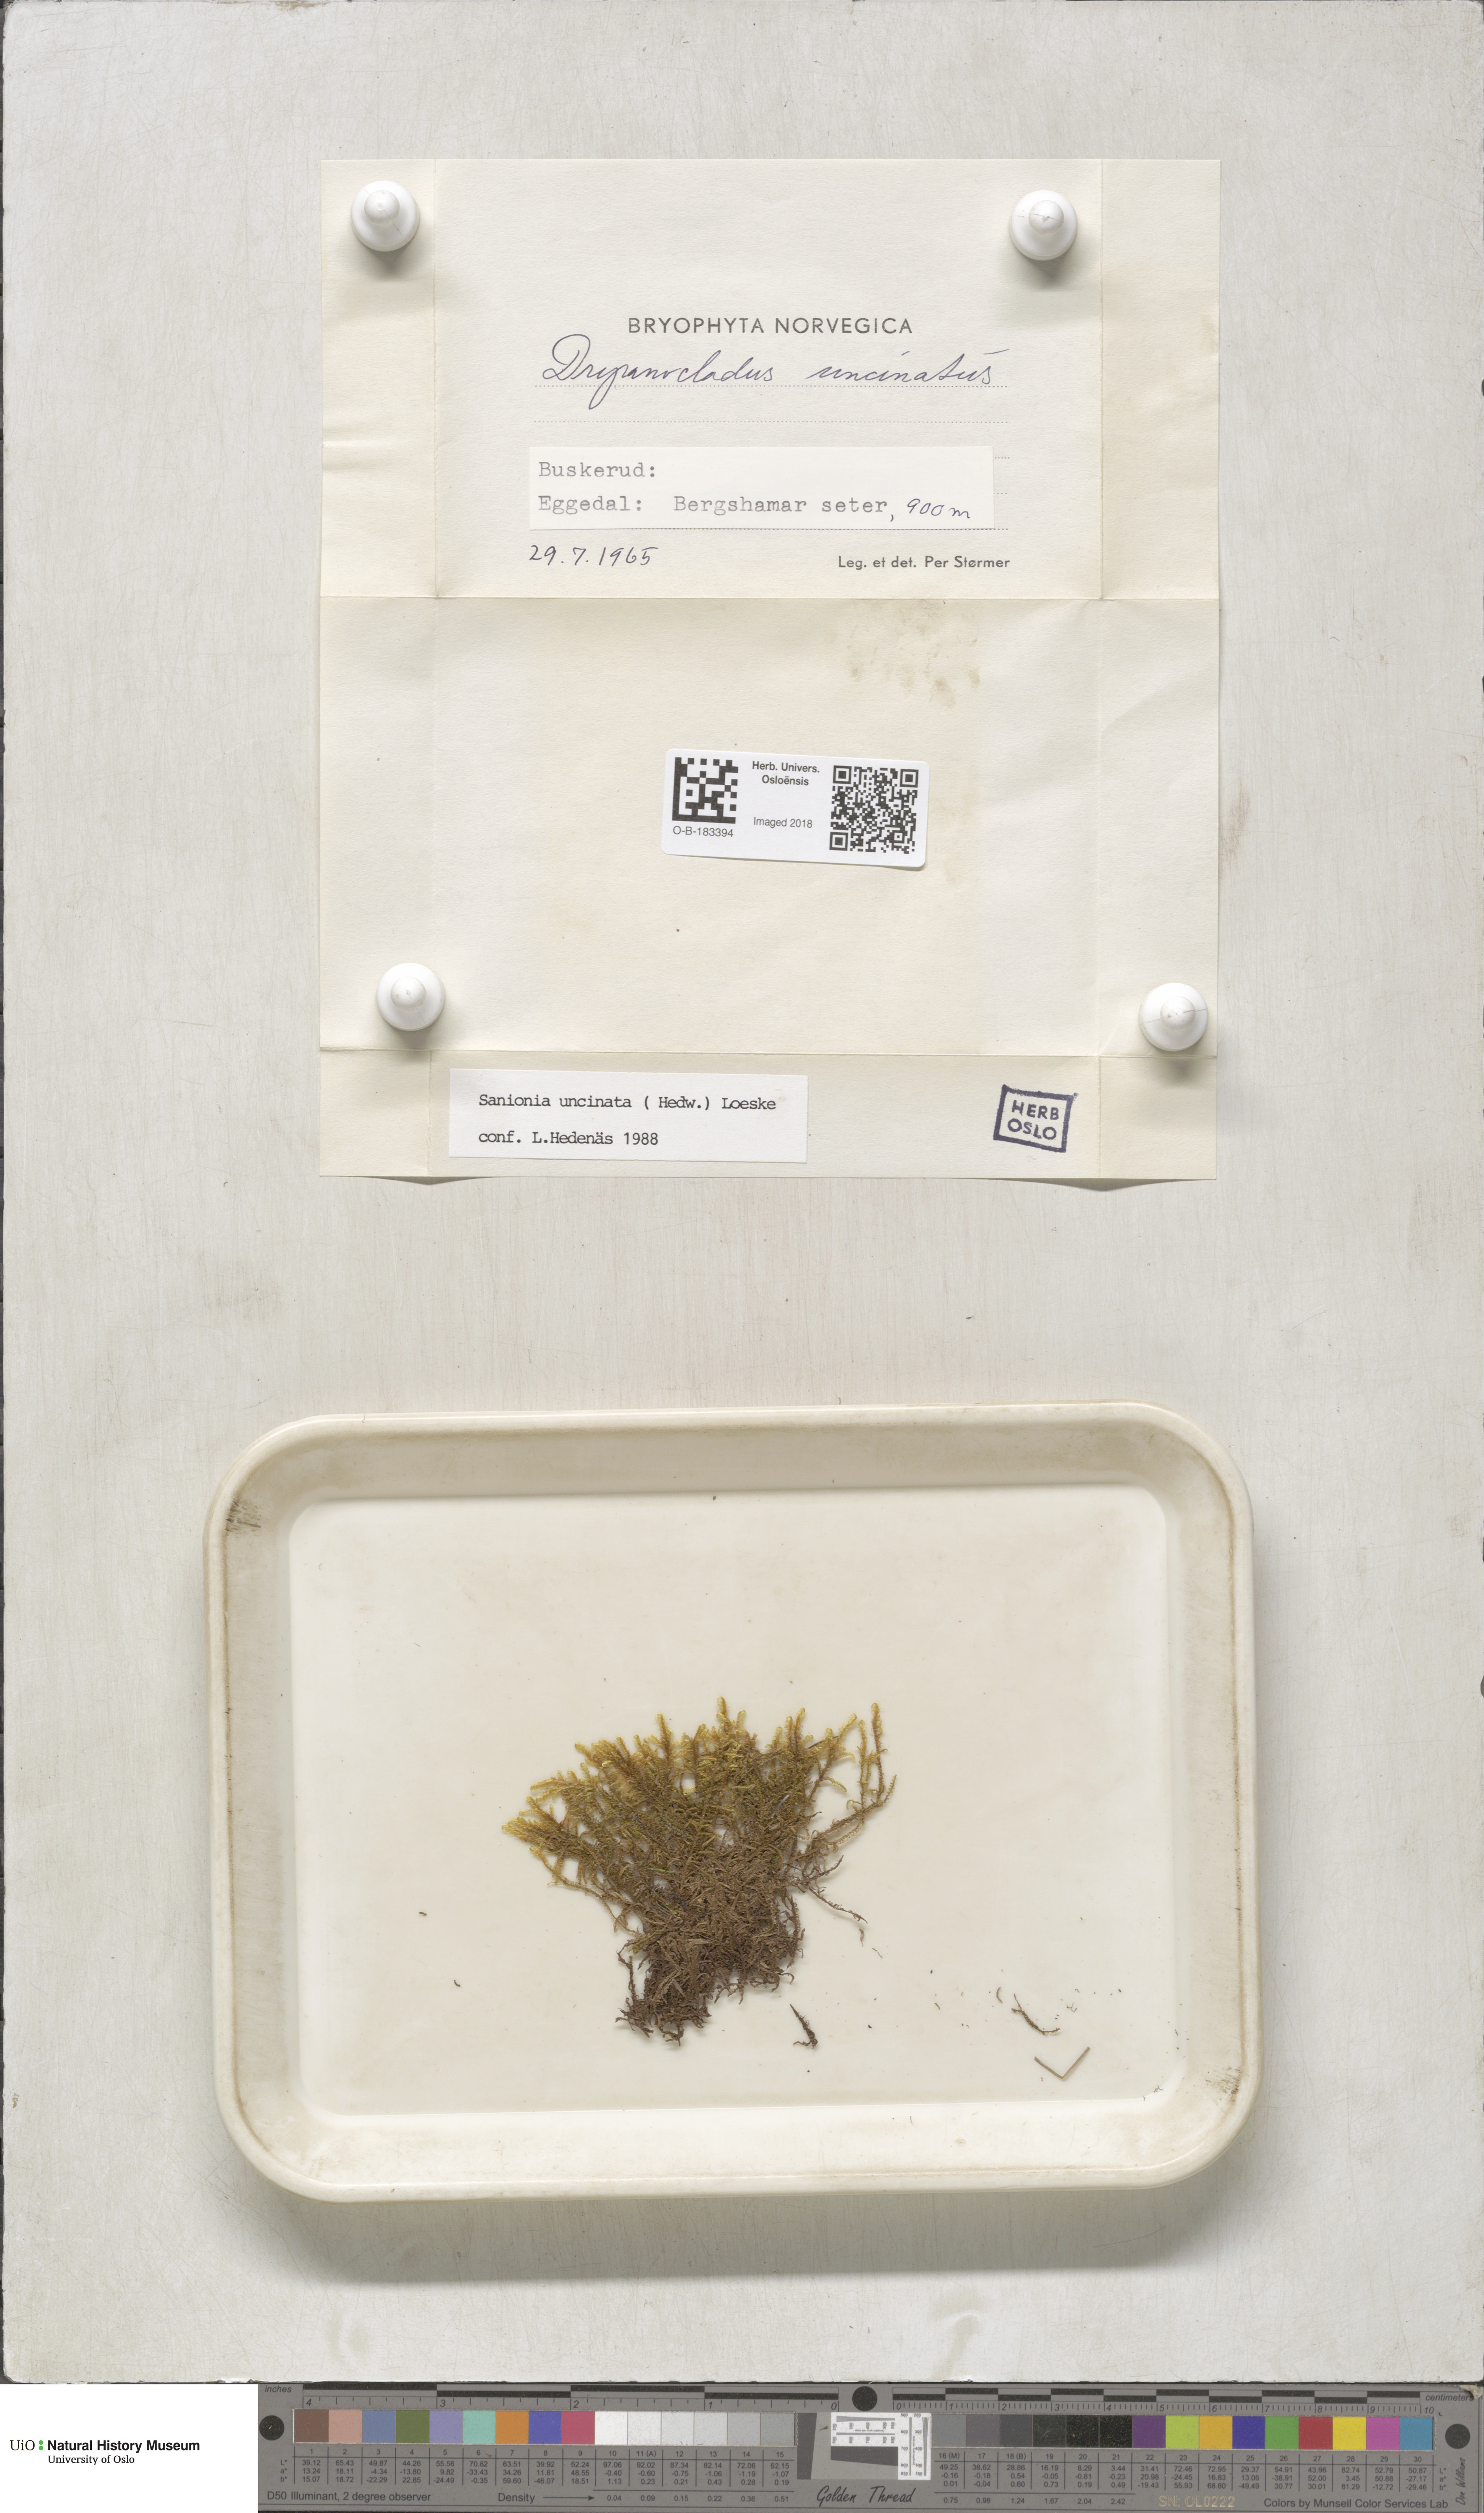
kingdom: Plantae
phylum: Bryophyta
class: Bryopsida
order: Hypnales
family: Scorpidiaceae
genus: Sanionia
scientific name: Sanionia uncinata
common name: Sickle moss
